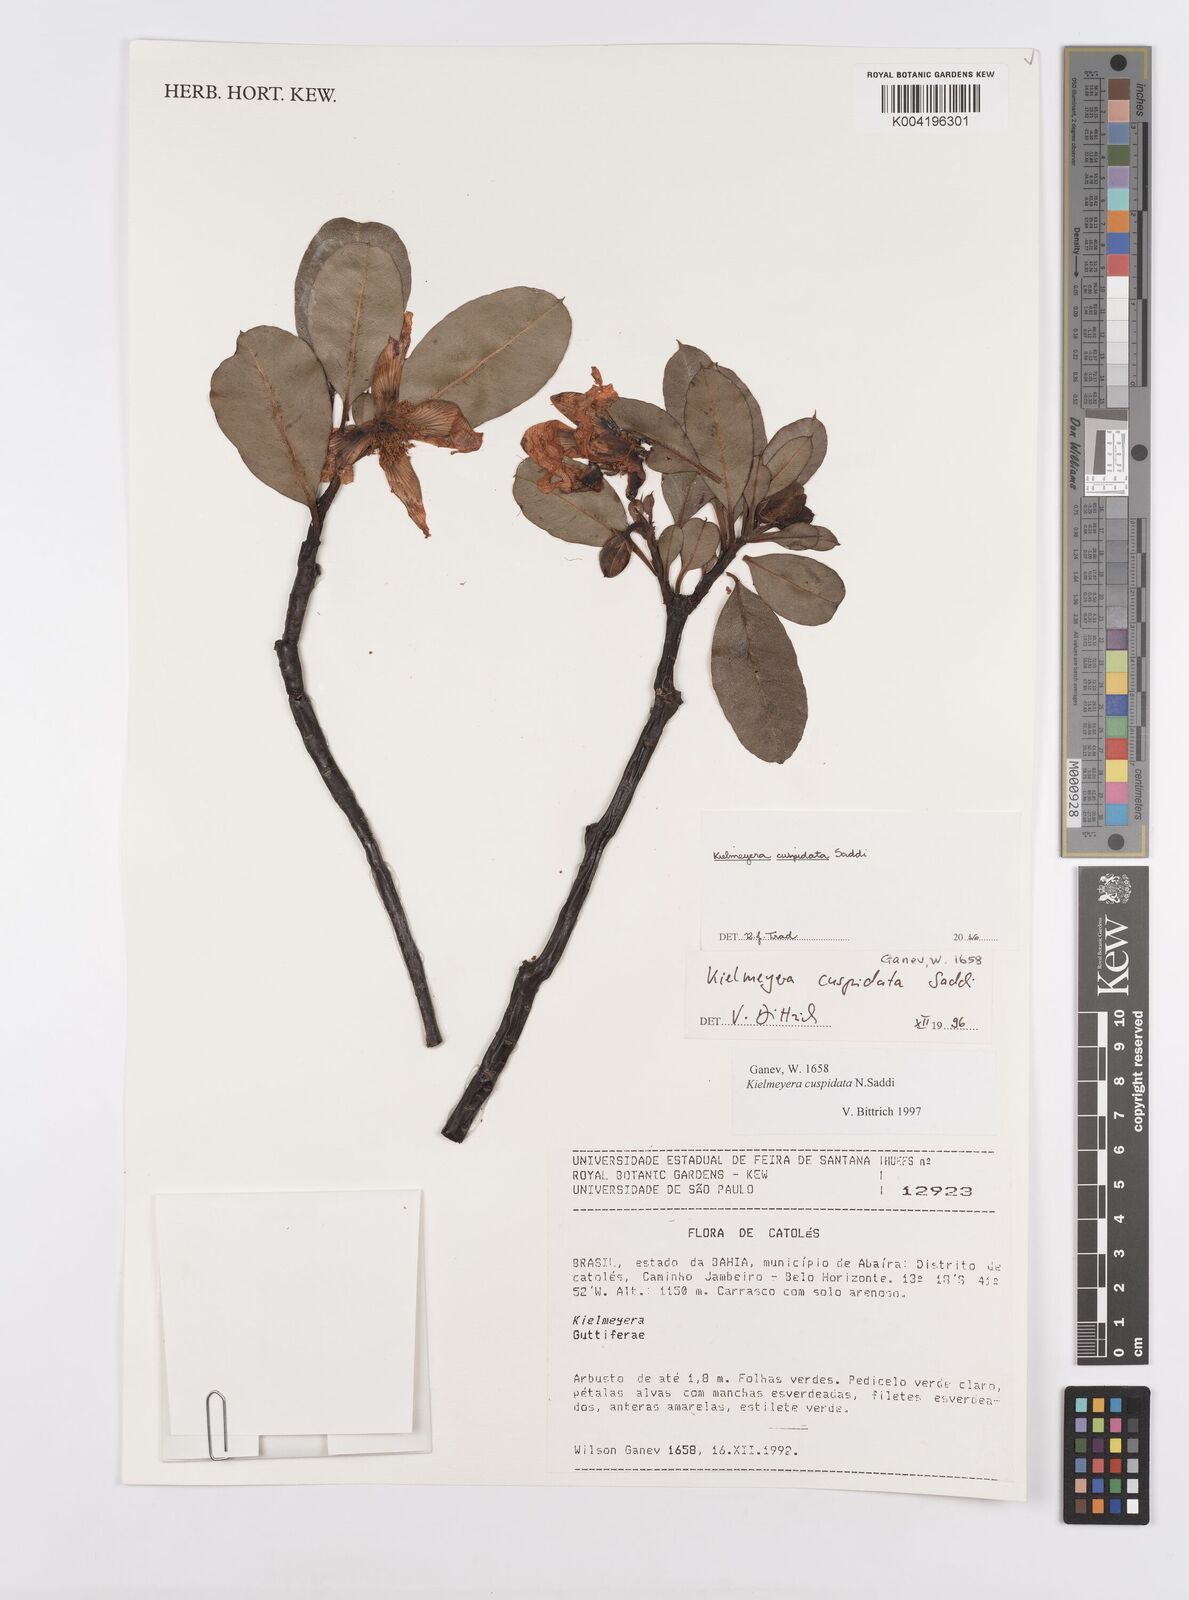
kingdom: Plantae
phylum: Tracheophyta
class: Magnoliopsida
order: Malpighiales
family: Calophyllaceae
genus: Kielmeyera
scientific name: Kielmeyera cuspidata
